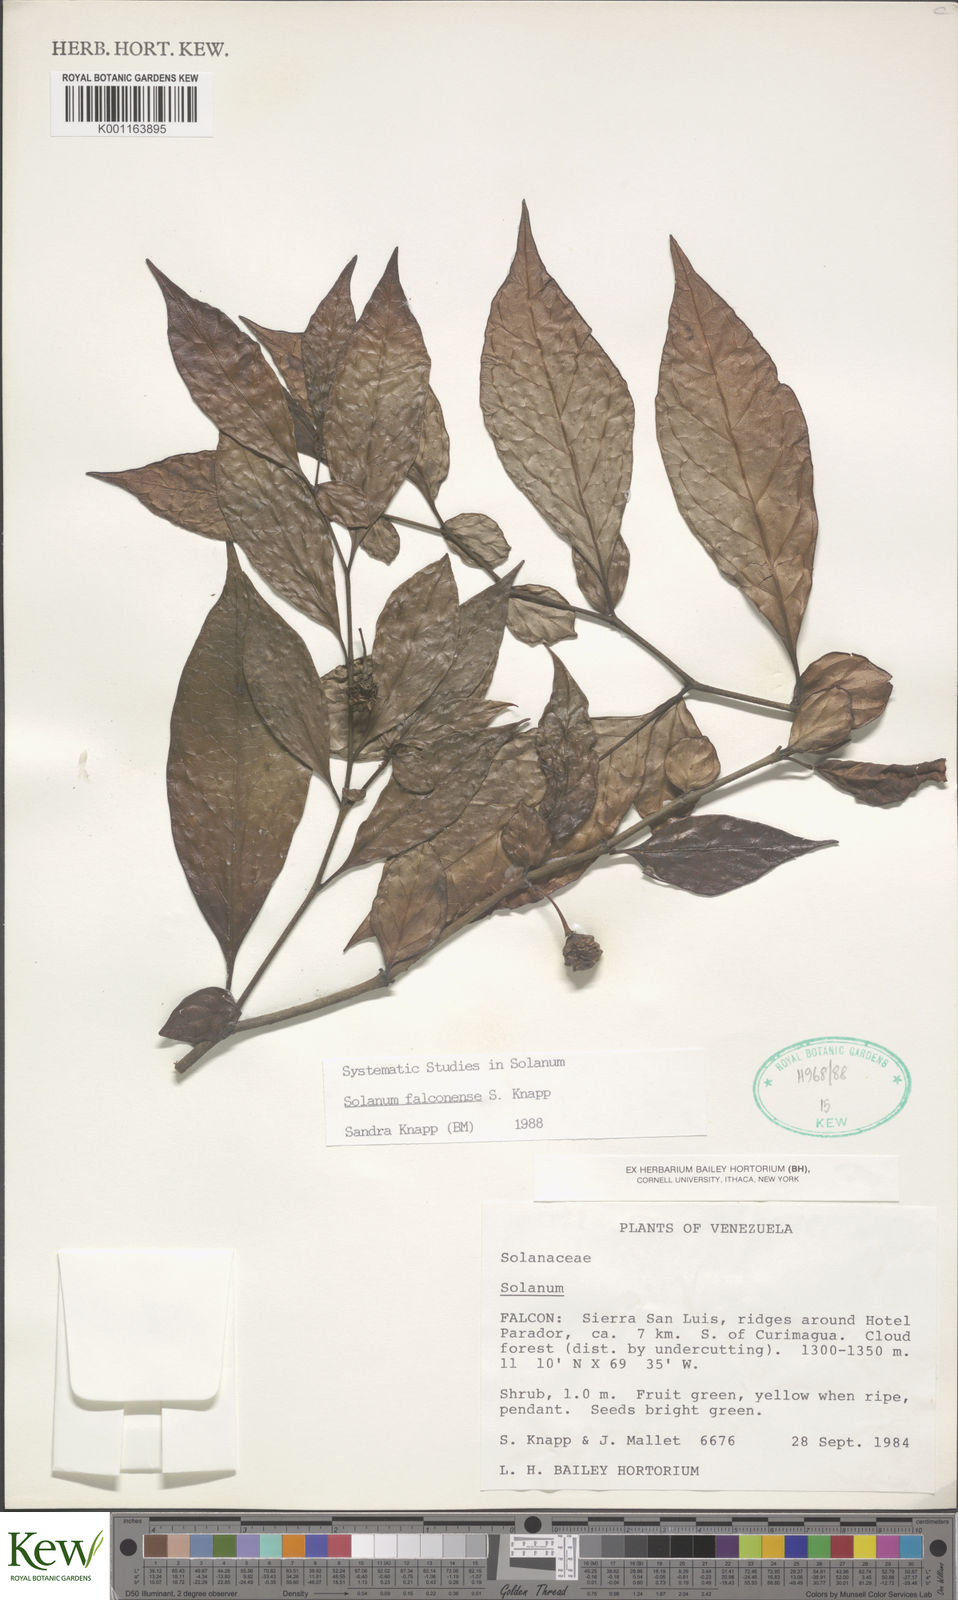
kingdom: Plantae
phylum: Tracheophyta
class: Magnoliopsida
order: Solanales
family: Solanaceae
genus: Solanum
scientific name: Solanum falconense
